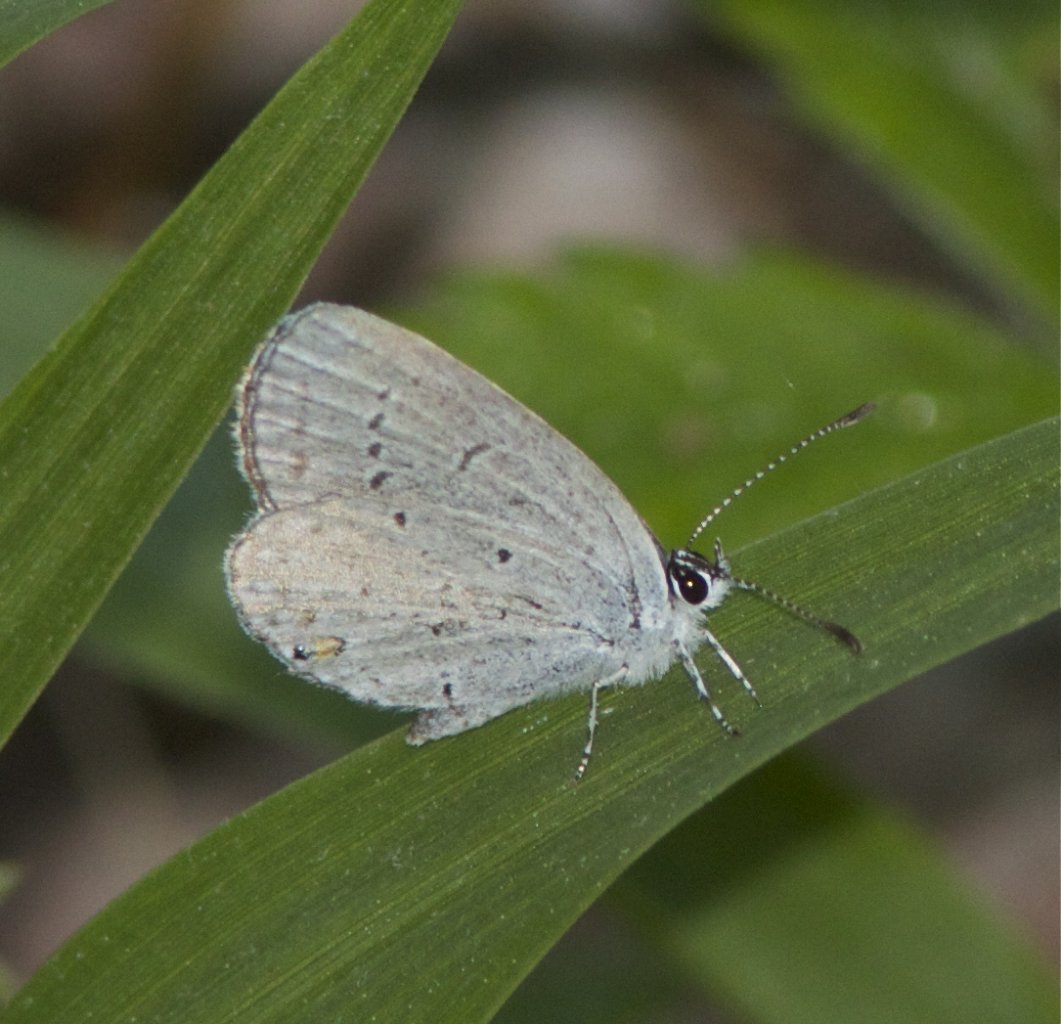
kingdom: Animalia
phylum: Arthropoda
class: Insecta
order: Lepidoptera
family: Lycaenidae
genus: Elkalyce
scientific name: Elkalyce comyntas
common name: Eastern Tailed-Blue
